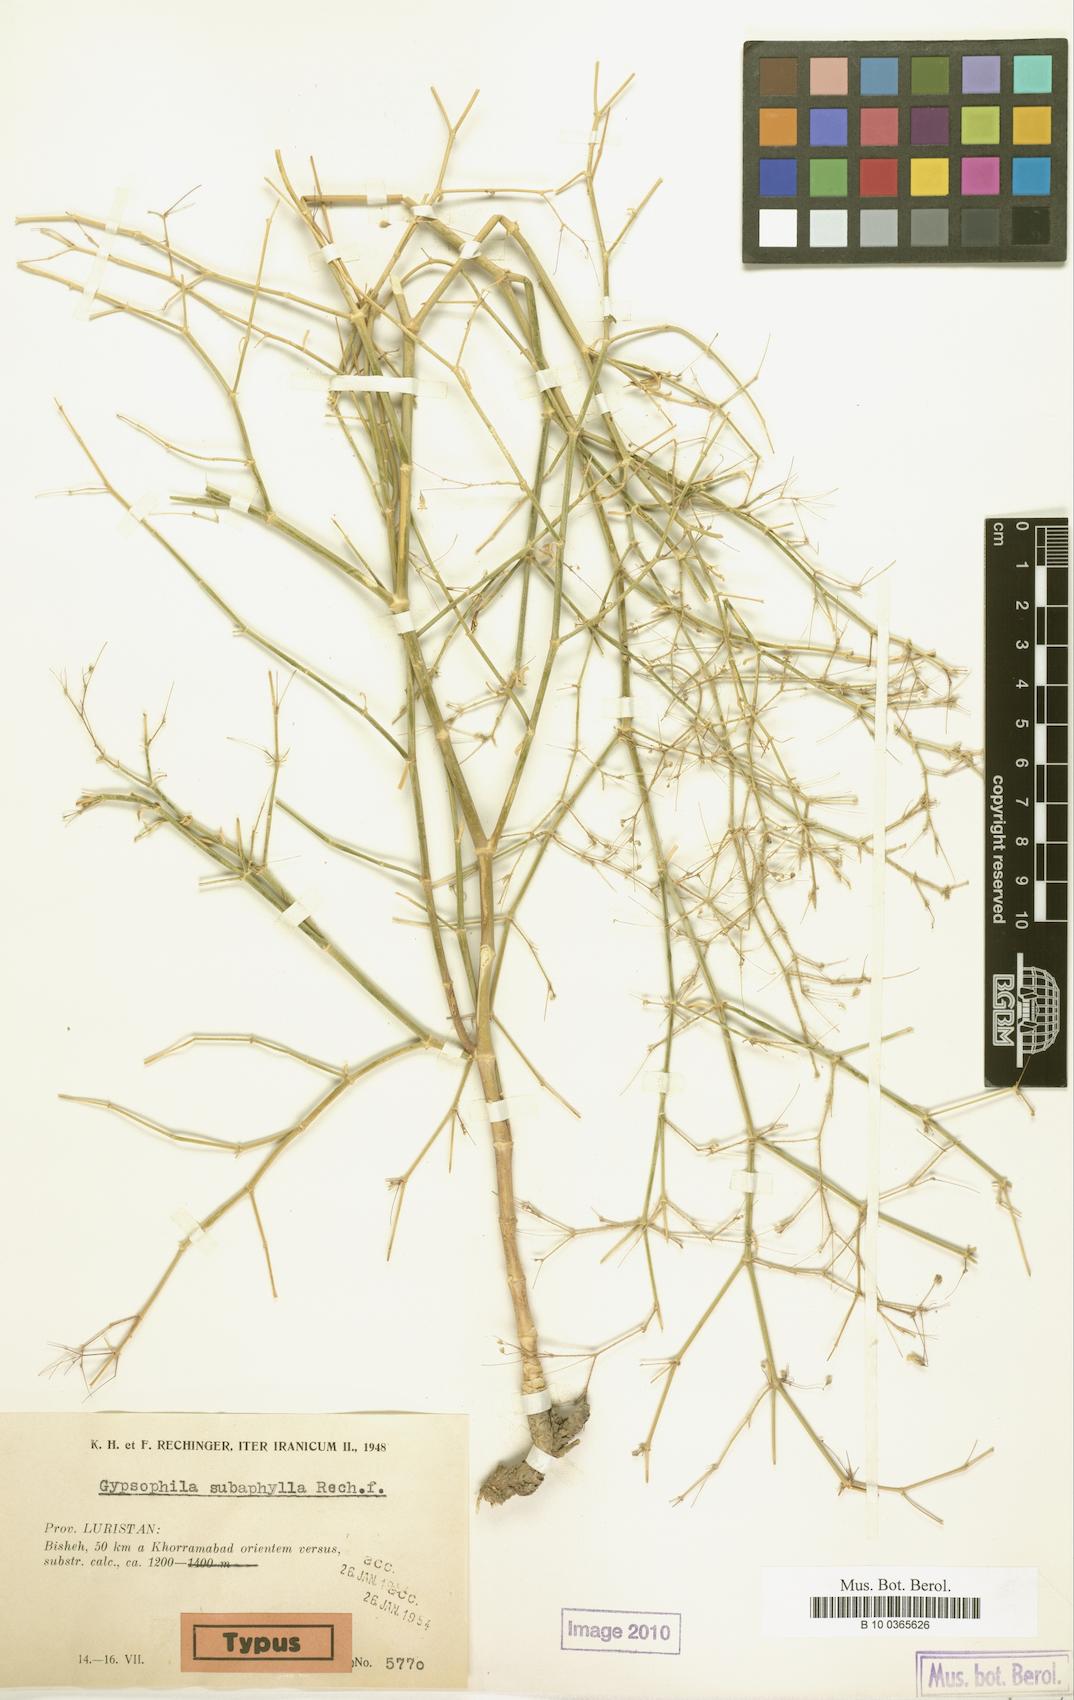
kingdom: Plantae
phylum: Tracheophyta
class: Magnoliopsida
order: Caryophyllales
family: Caryophyllaceae
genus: Mesostemma
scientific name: Mesostemma gypsophiloides
